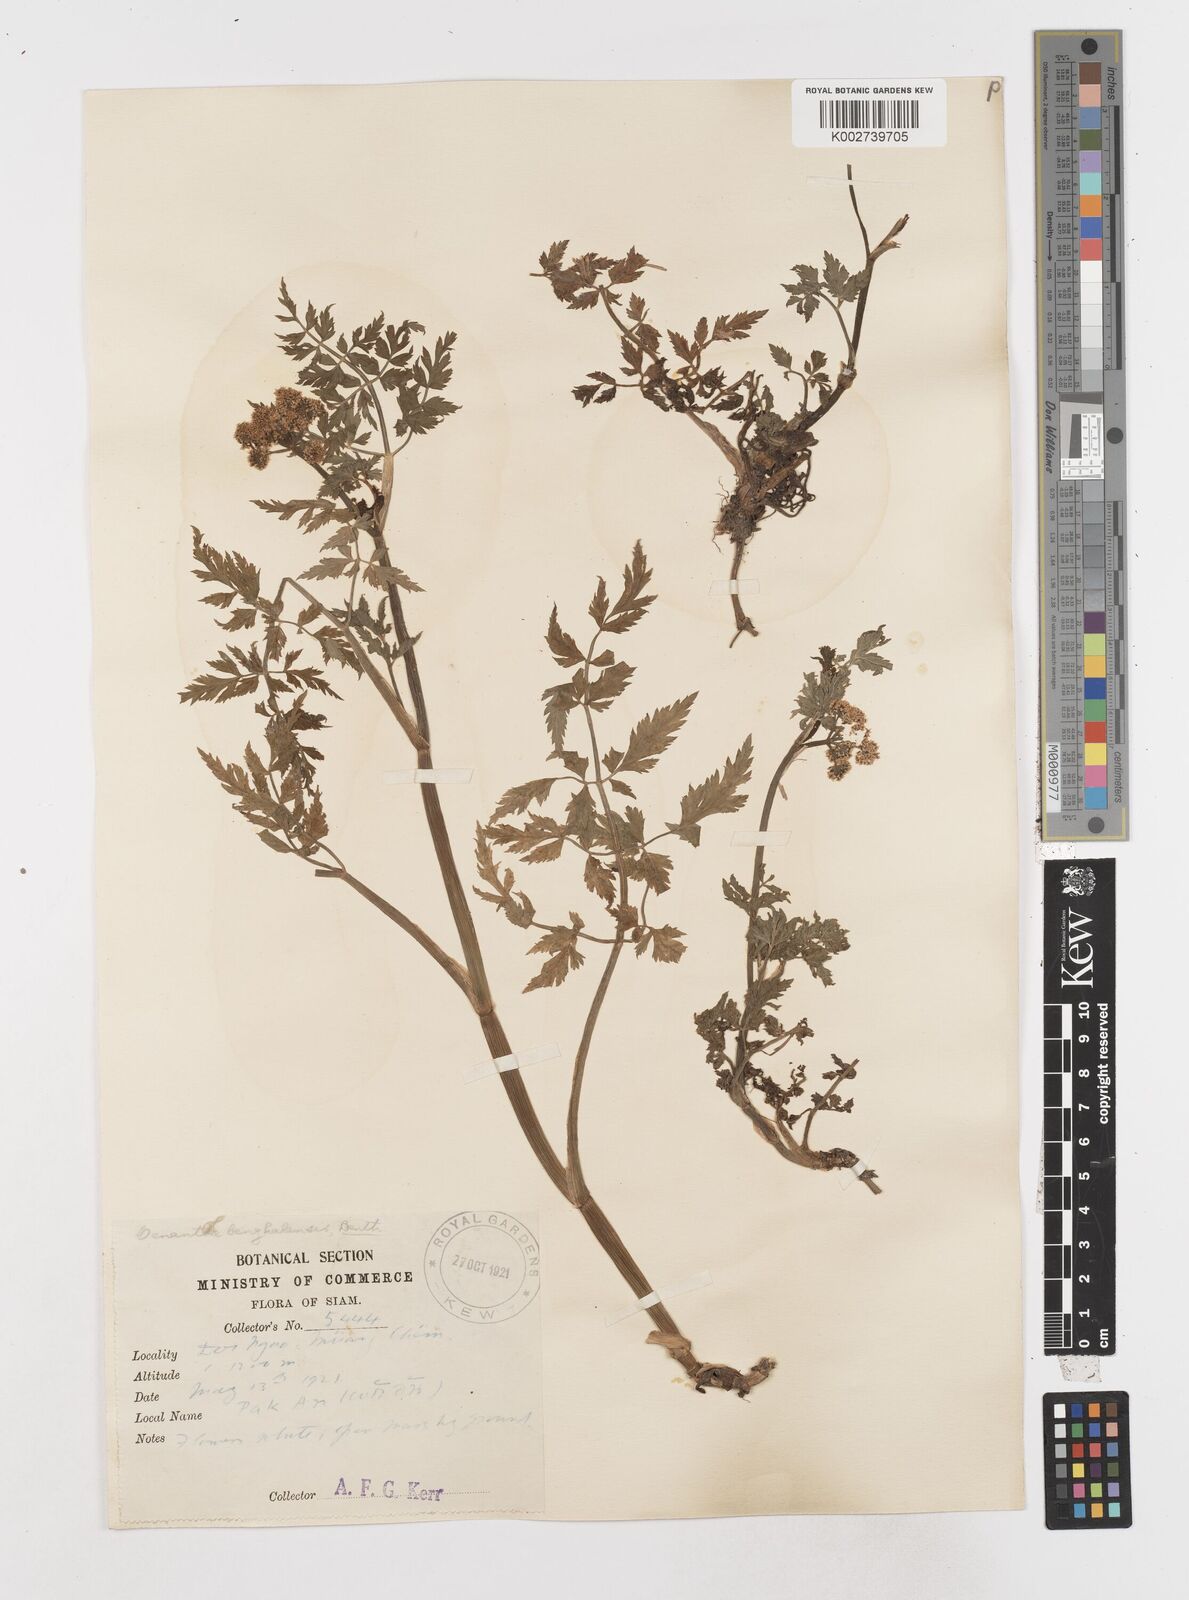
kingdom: Plantae
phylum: Tracheophyta
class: Magnoliopsida
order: Apiales
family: Apiaceae
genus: Oenanthe
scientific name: Oenanthe javanica
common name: Java water-dropwort
